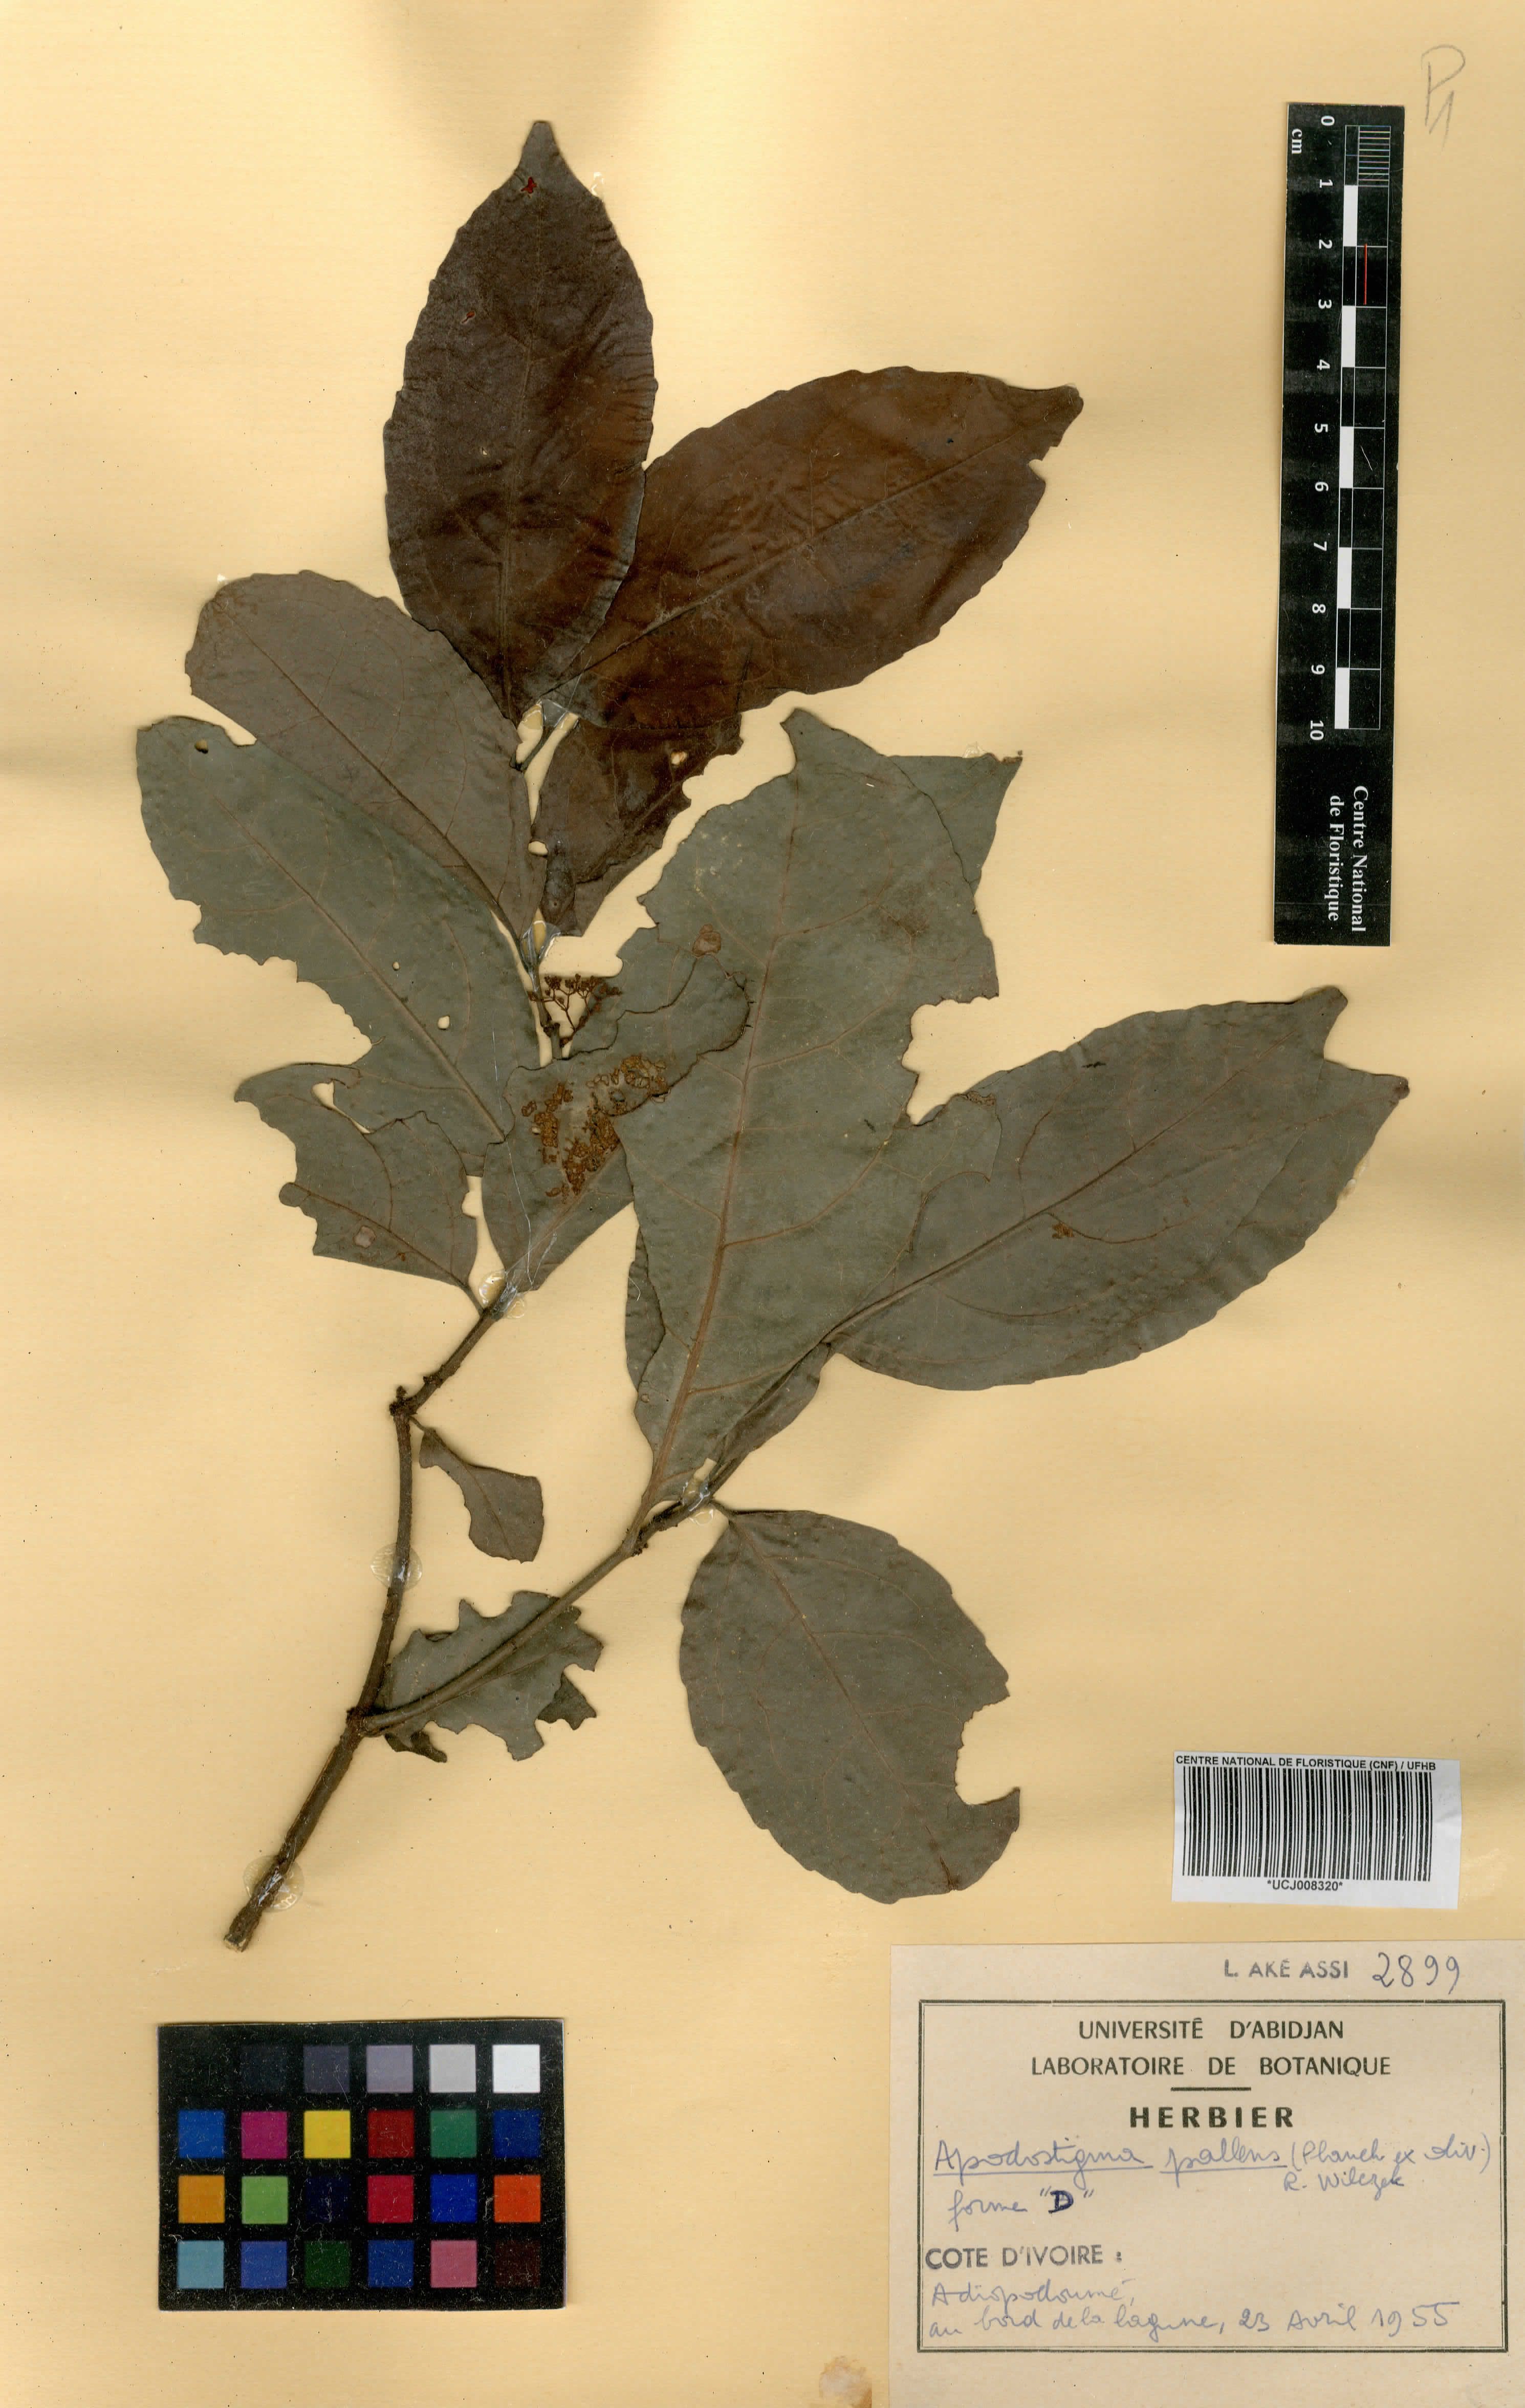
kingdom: Plantae
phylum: Tracheophyta
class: Magnoliopsida
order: Celastrales
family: Celastraceae
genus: Apodostigma
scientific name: Apodostigma pallens
